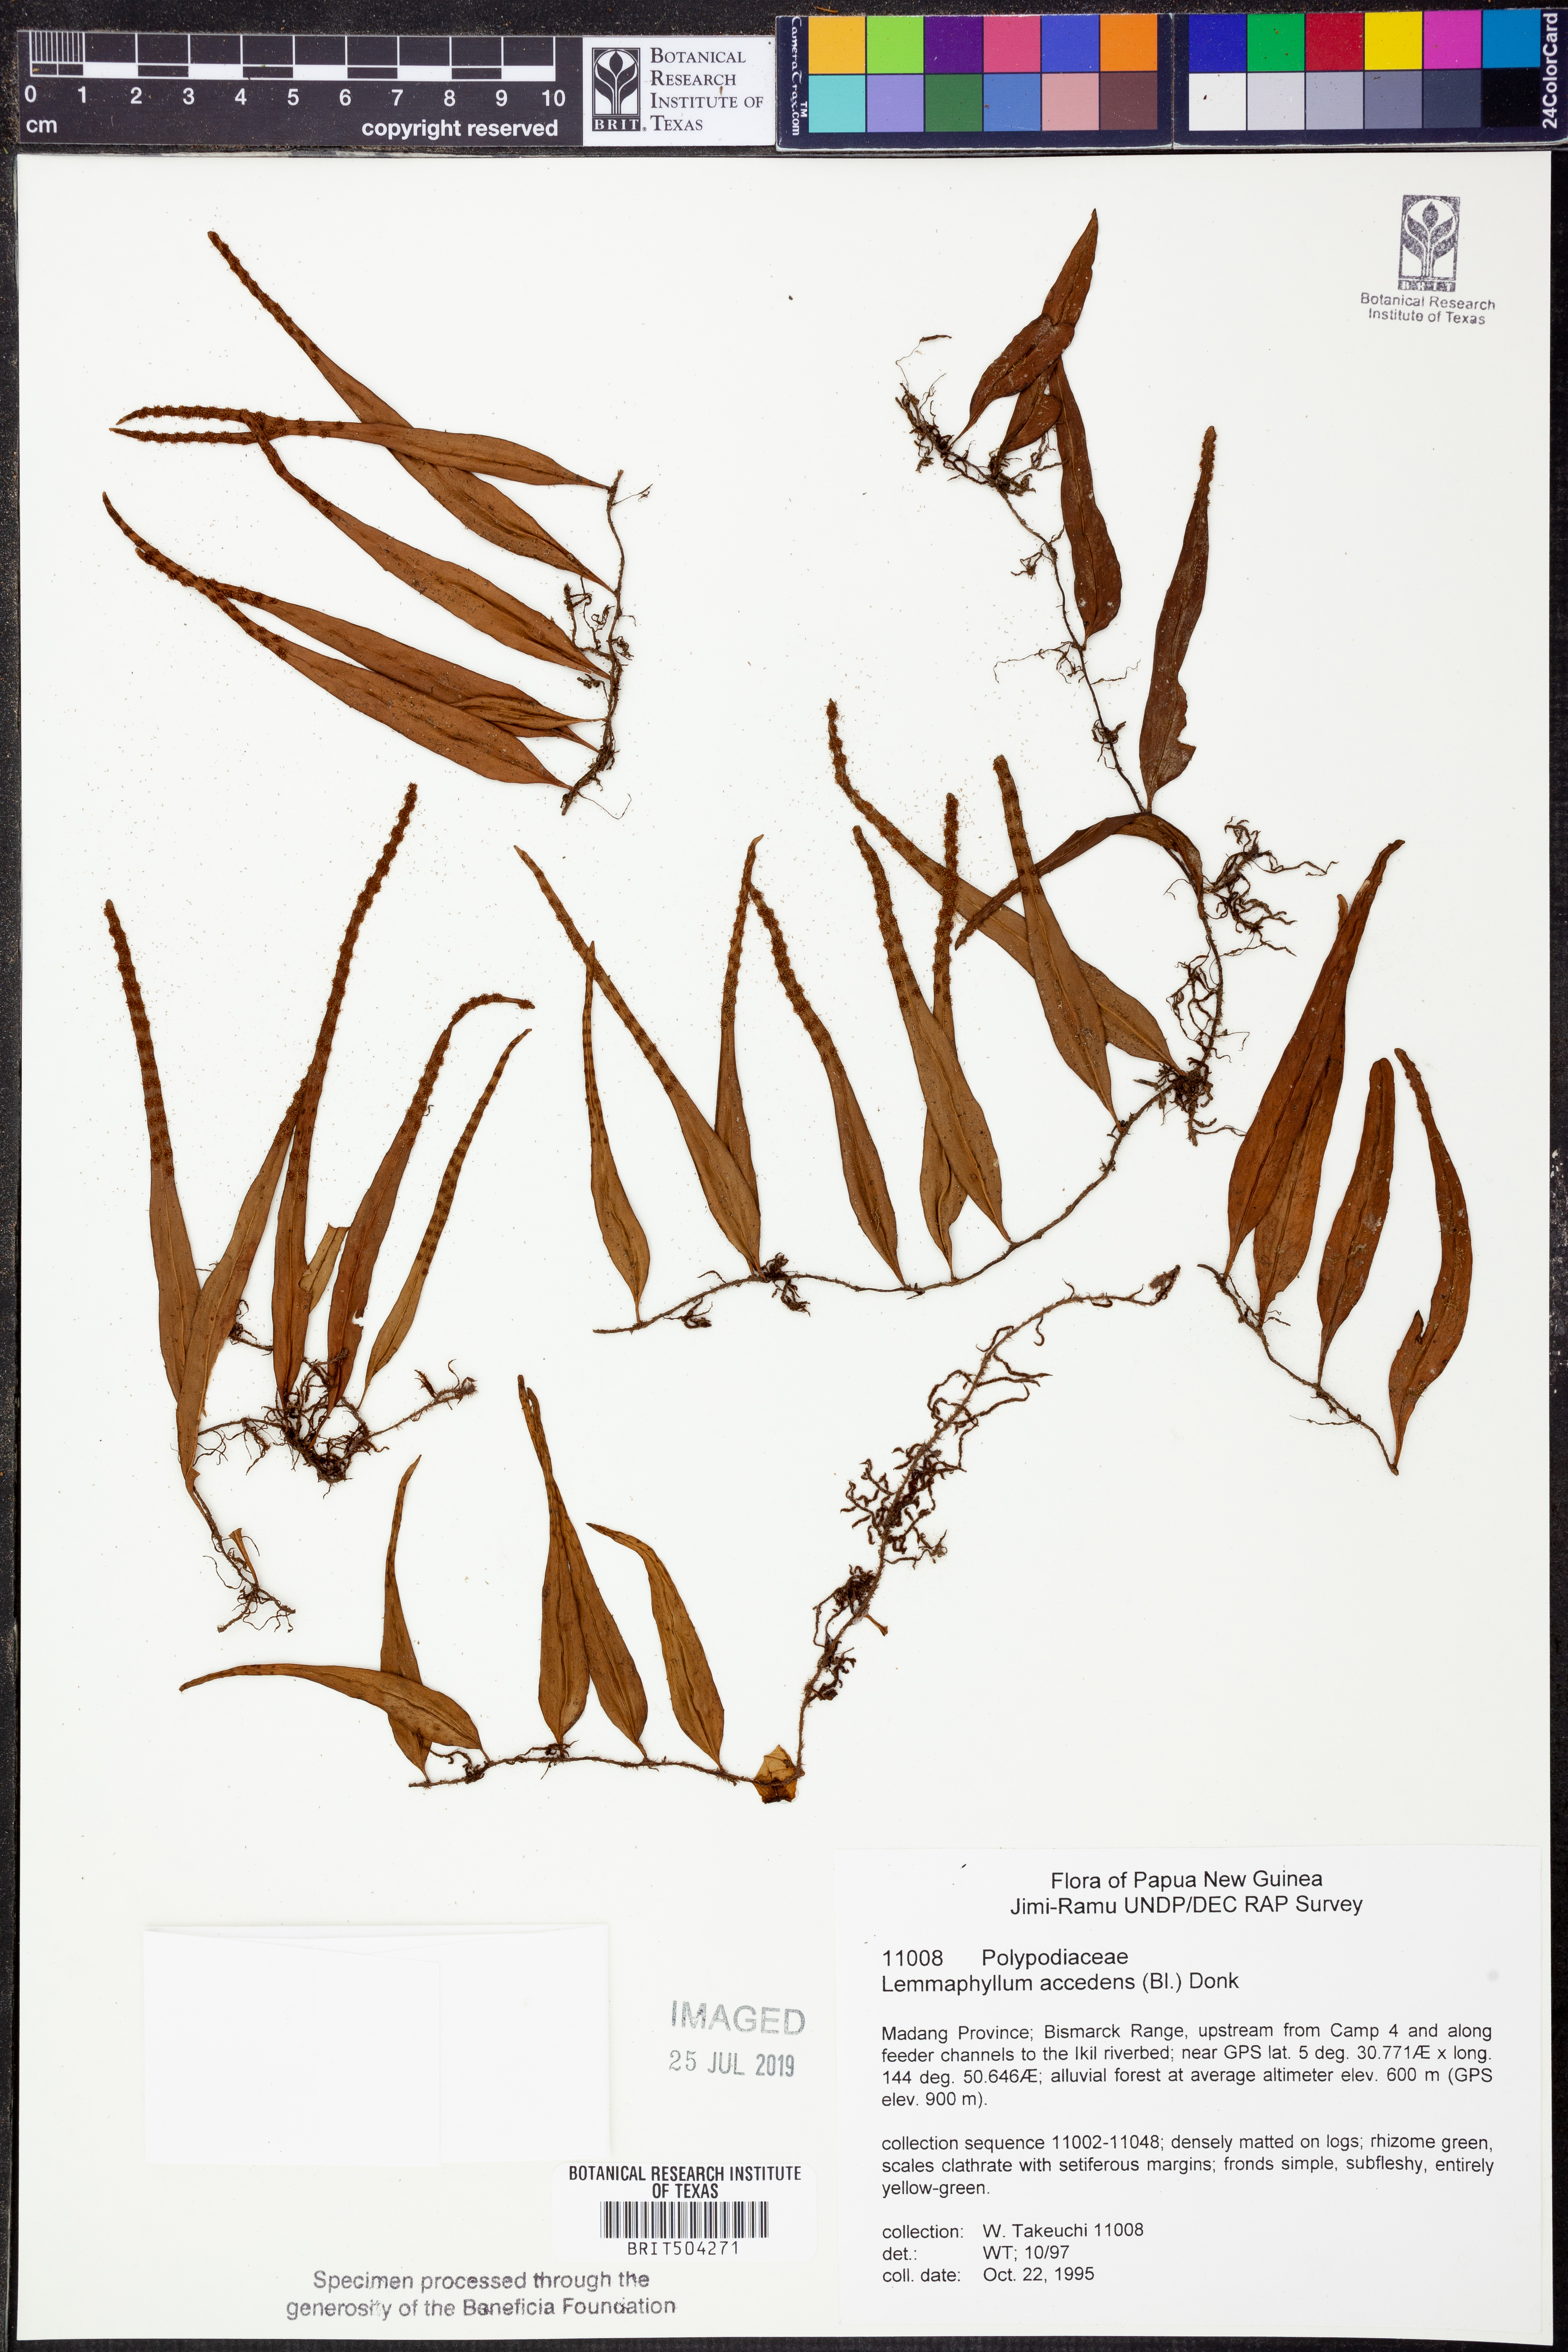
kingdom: Plantae
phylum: Tracheophyta
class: Polypodiopsida
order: Polypodiales
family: Polypodiaceae
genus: Lepisorus
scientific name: Lepisorus accedens
